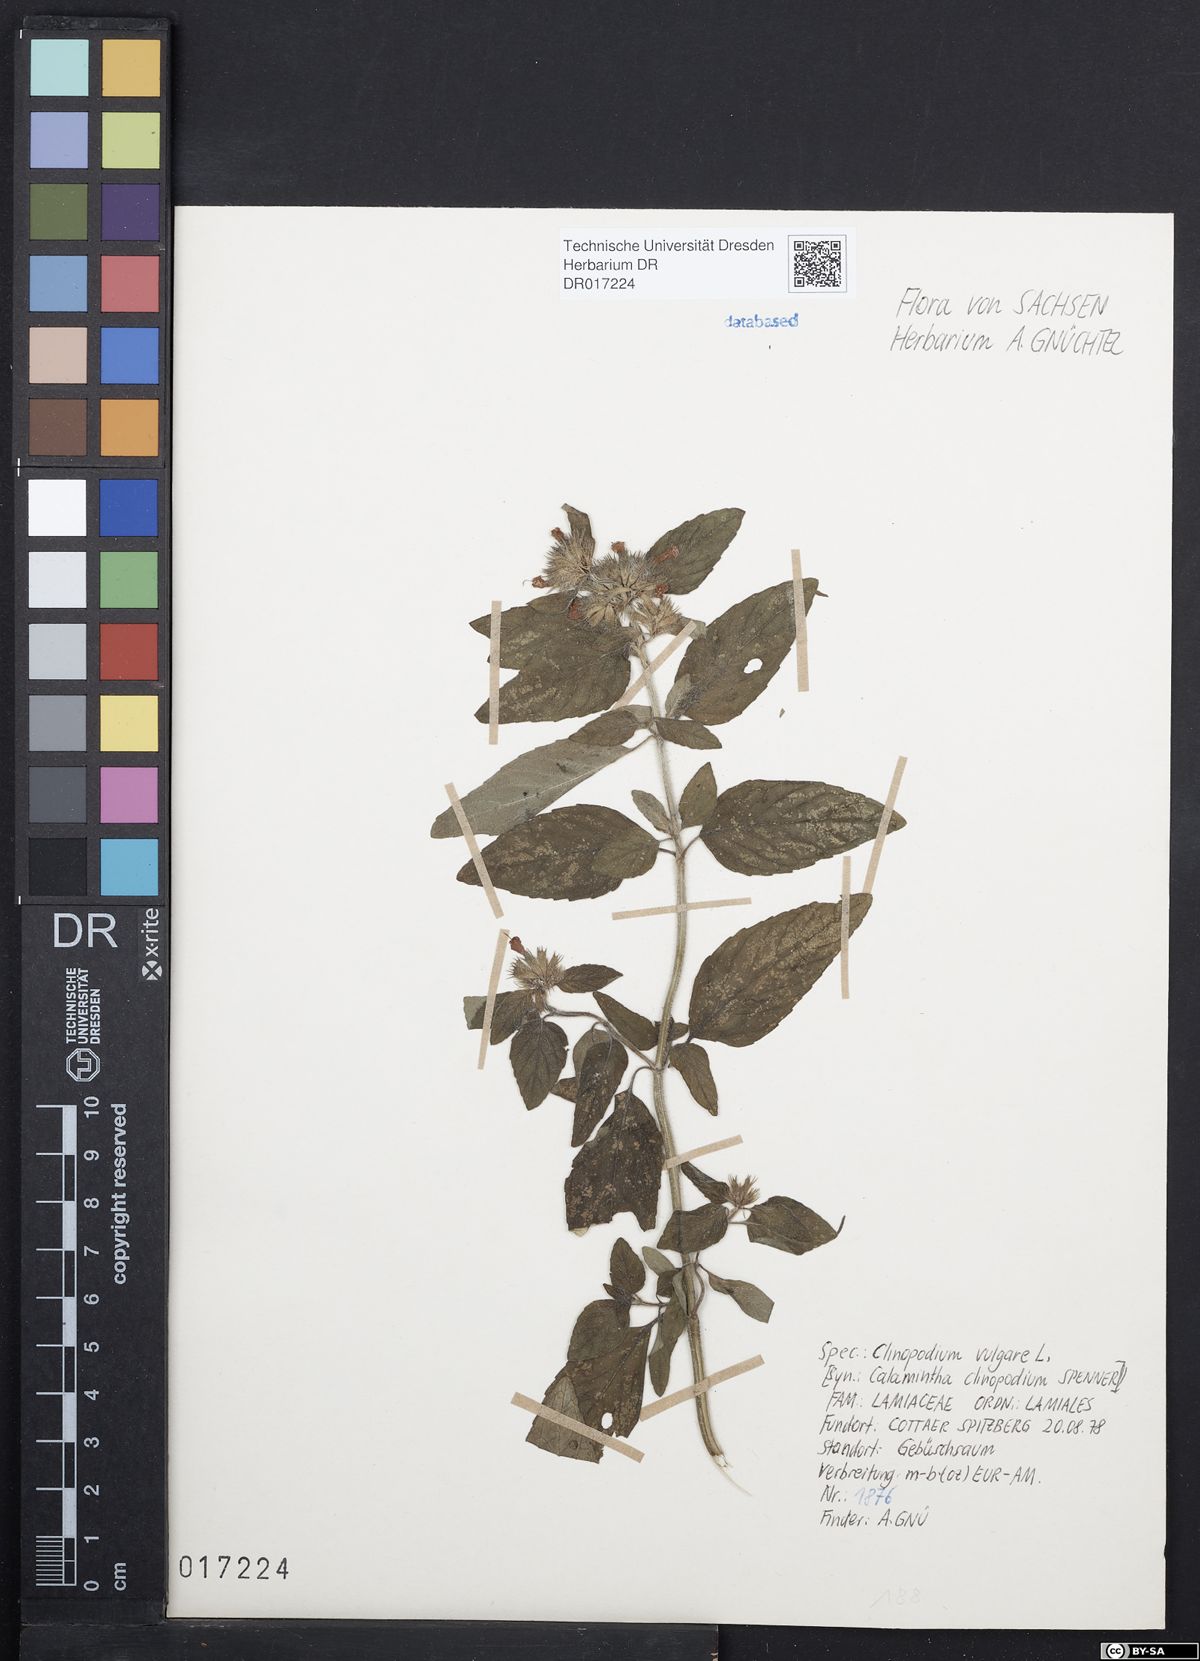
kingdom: Plantae
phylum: Tracheophyta
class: Magnoliopsida
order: Lamiales
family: Lamiaceae
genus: Clinopodium
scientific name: Clinopodium vulgare
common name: Wild basil
